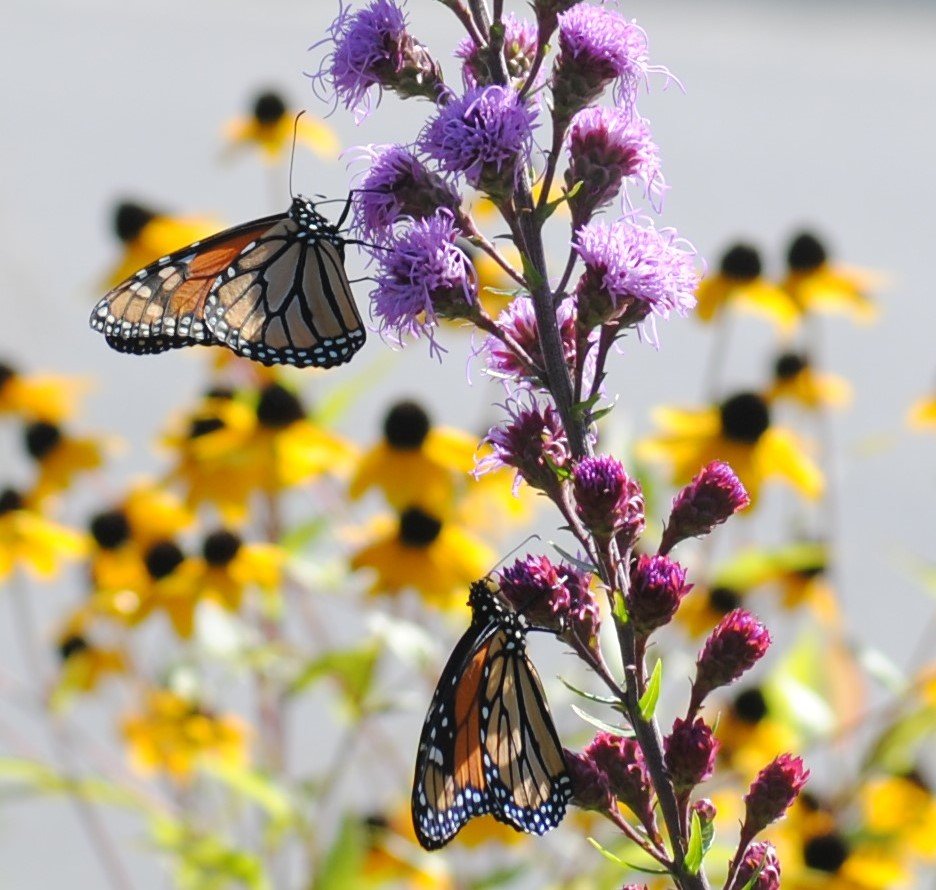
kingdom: Animalia
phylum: Arthropoda
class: Insecta
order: Lepidoptera
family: Nymphalidae
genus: Danaus
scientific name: Danaus plexippus
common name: Monarch
